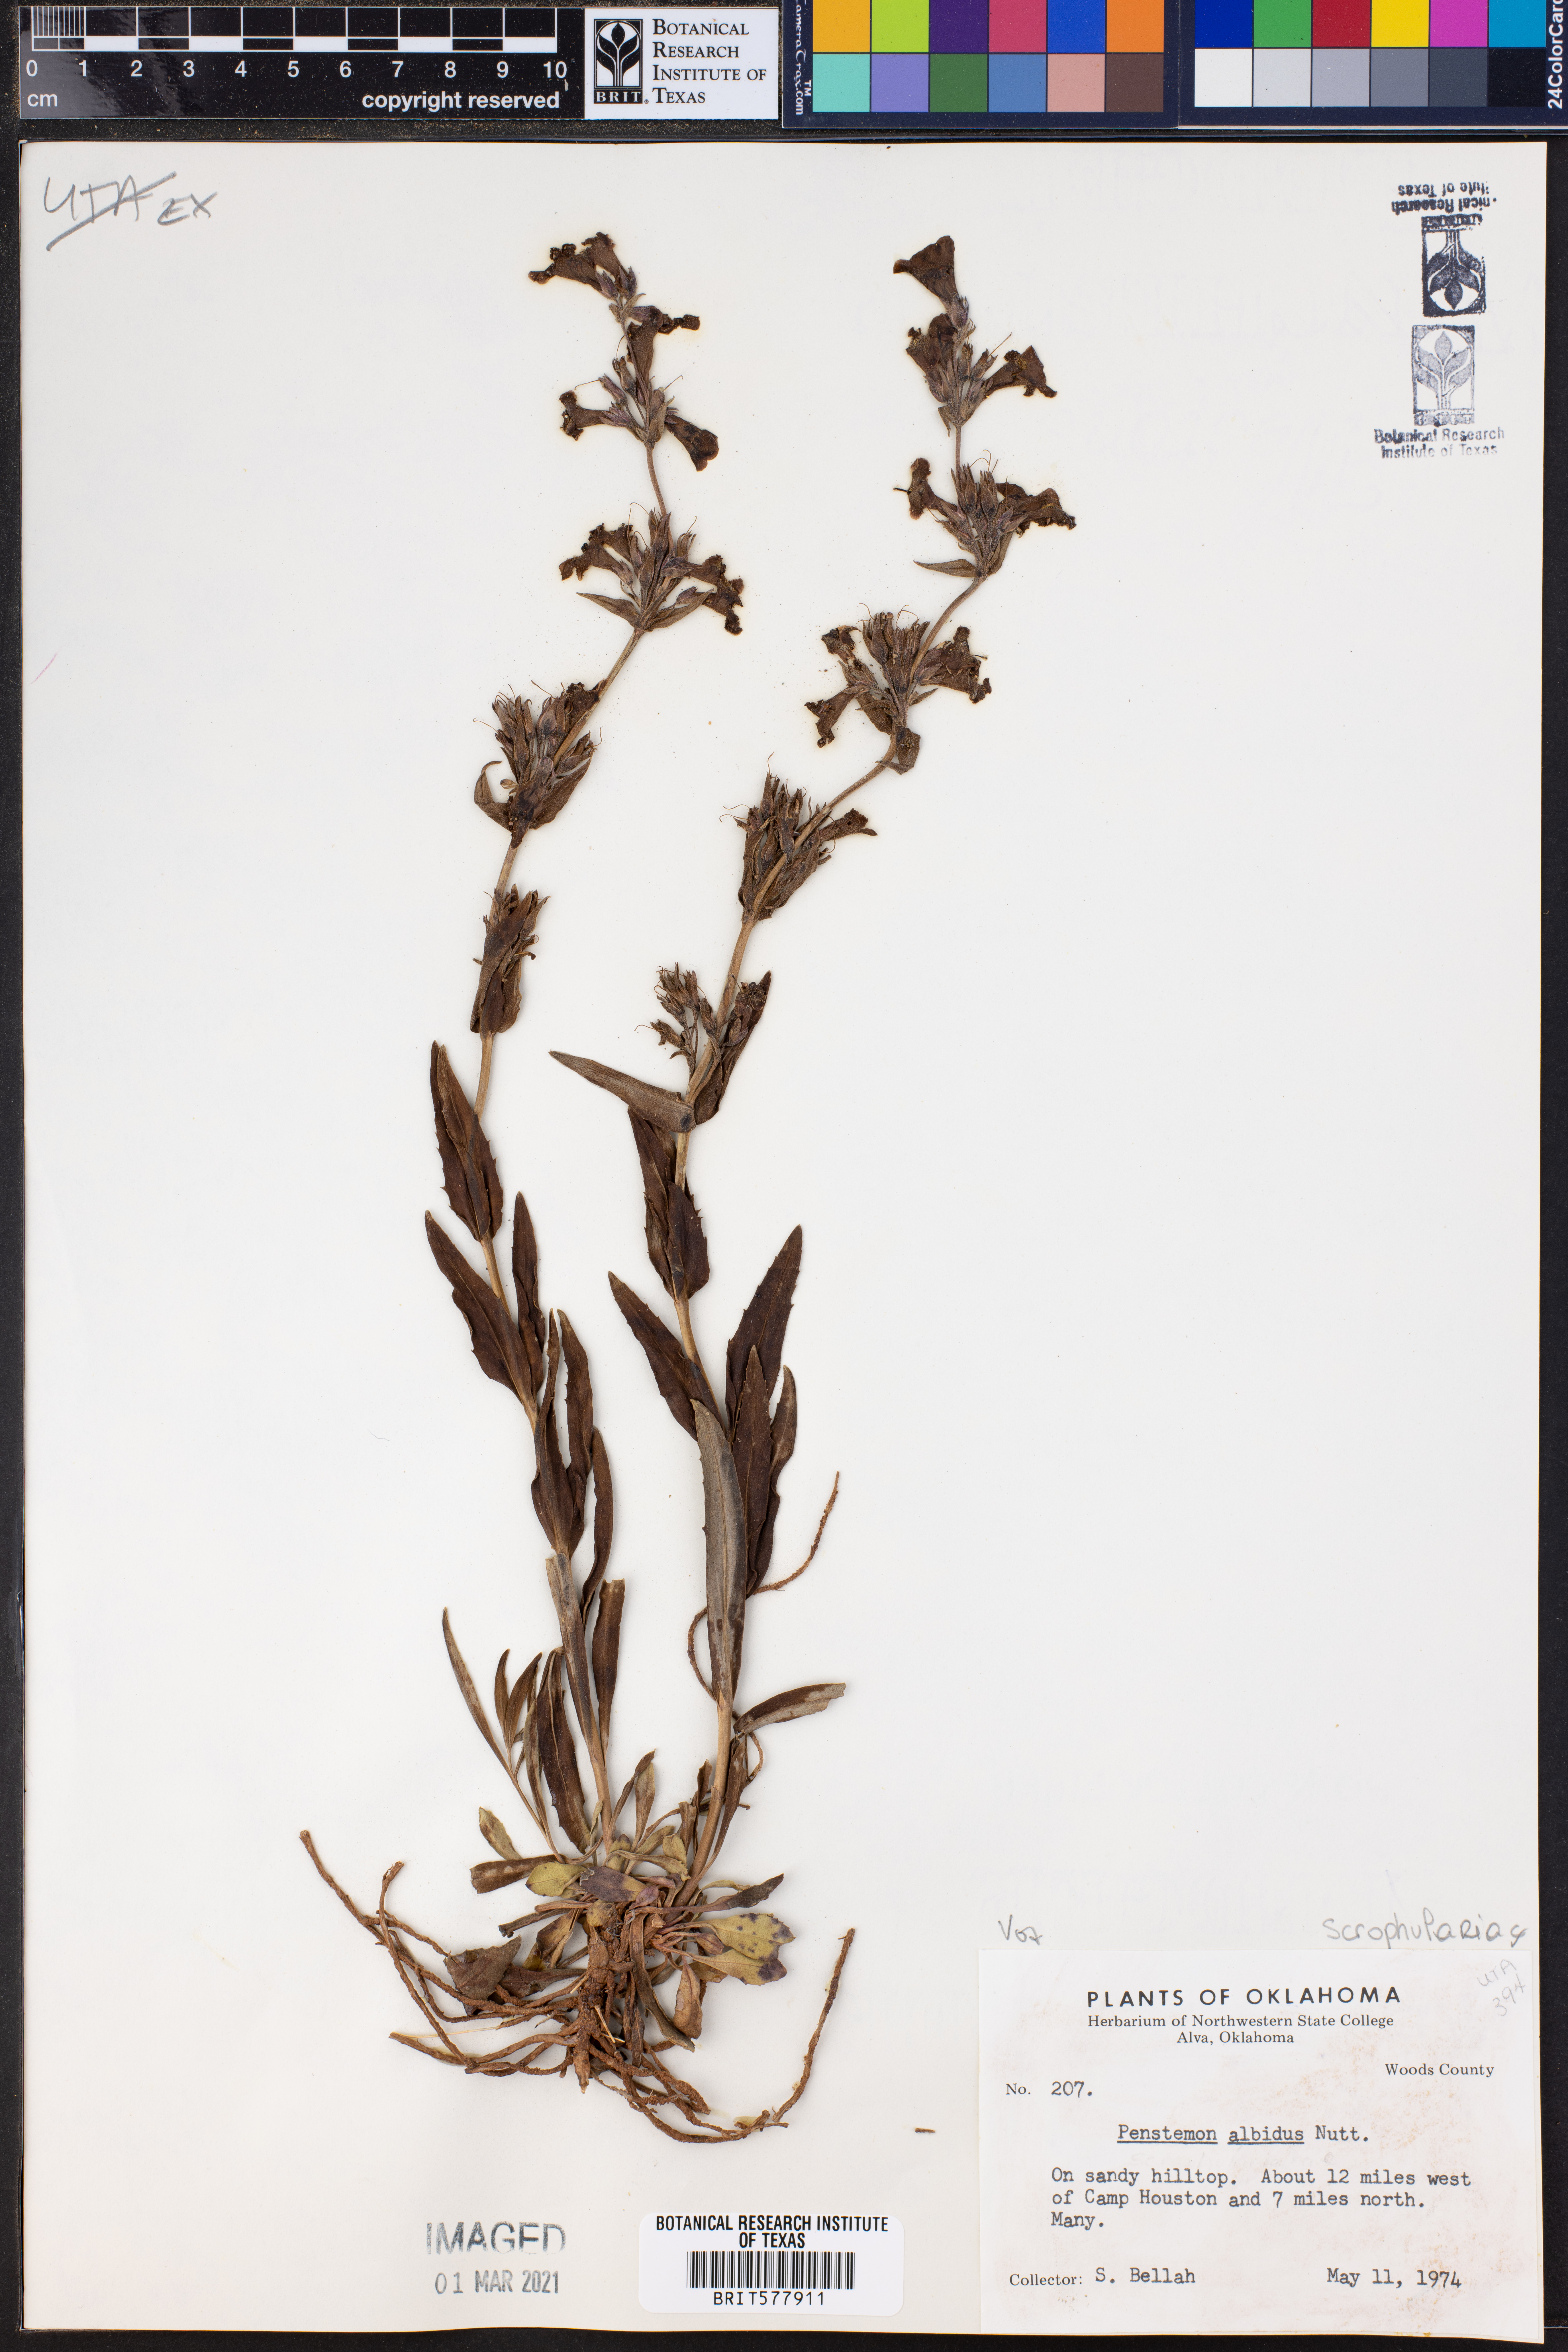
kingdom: Plantae
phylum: Tracheophyta
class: Magnoliopsida
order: Lamiales
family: Plantaginaceae
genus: Penstemon
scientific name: Penstemon albidus
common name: White beardtongue
